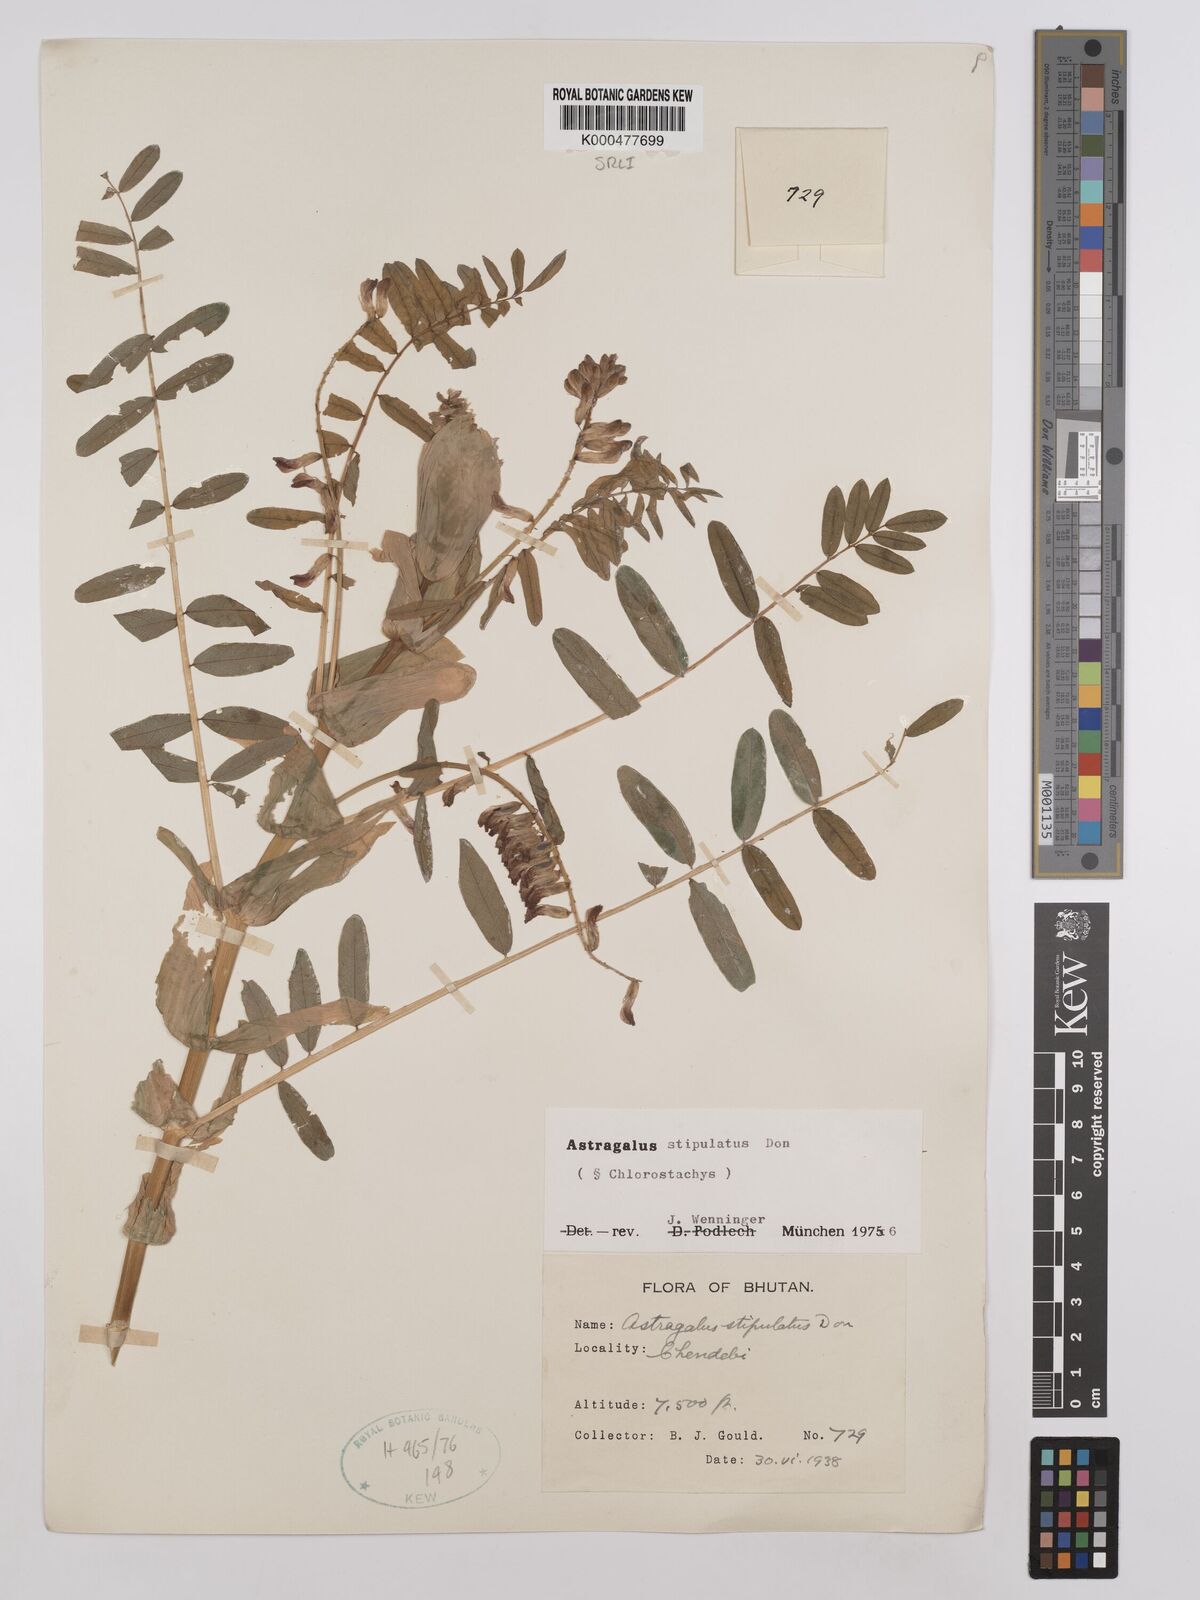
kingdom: Plantae
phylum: Tracheophyta
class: Magnoliopsida
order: Fabales
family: Fabaceae
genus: Astragalus
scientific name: Astragalus stipulatus
